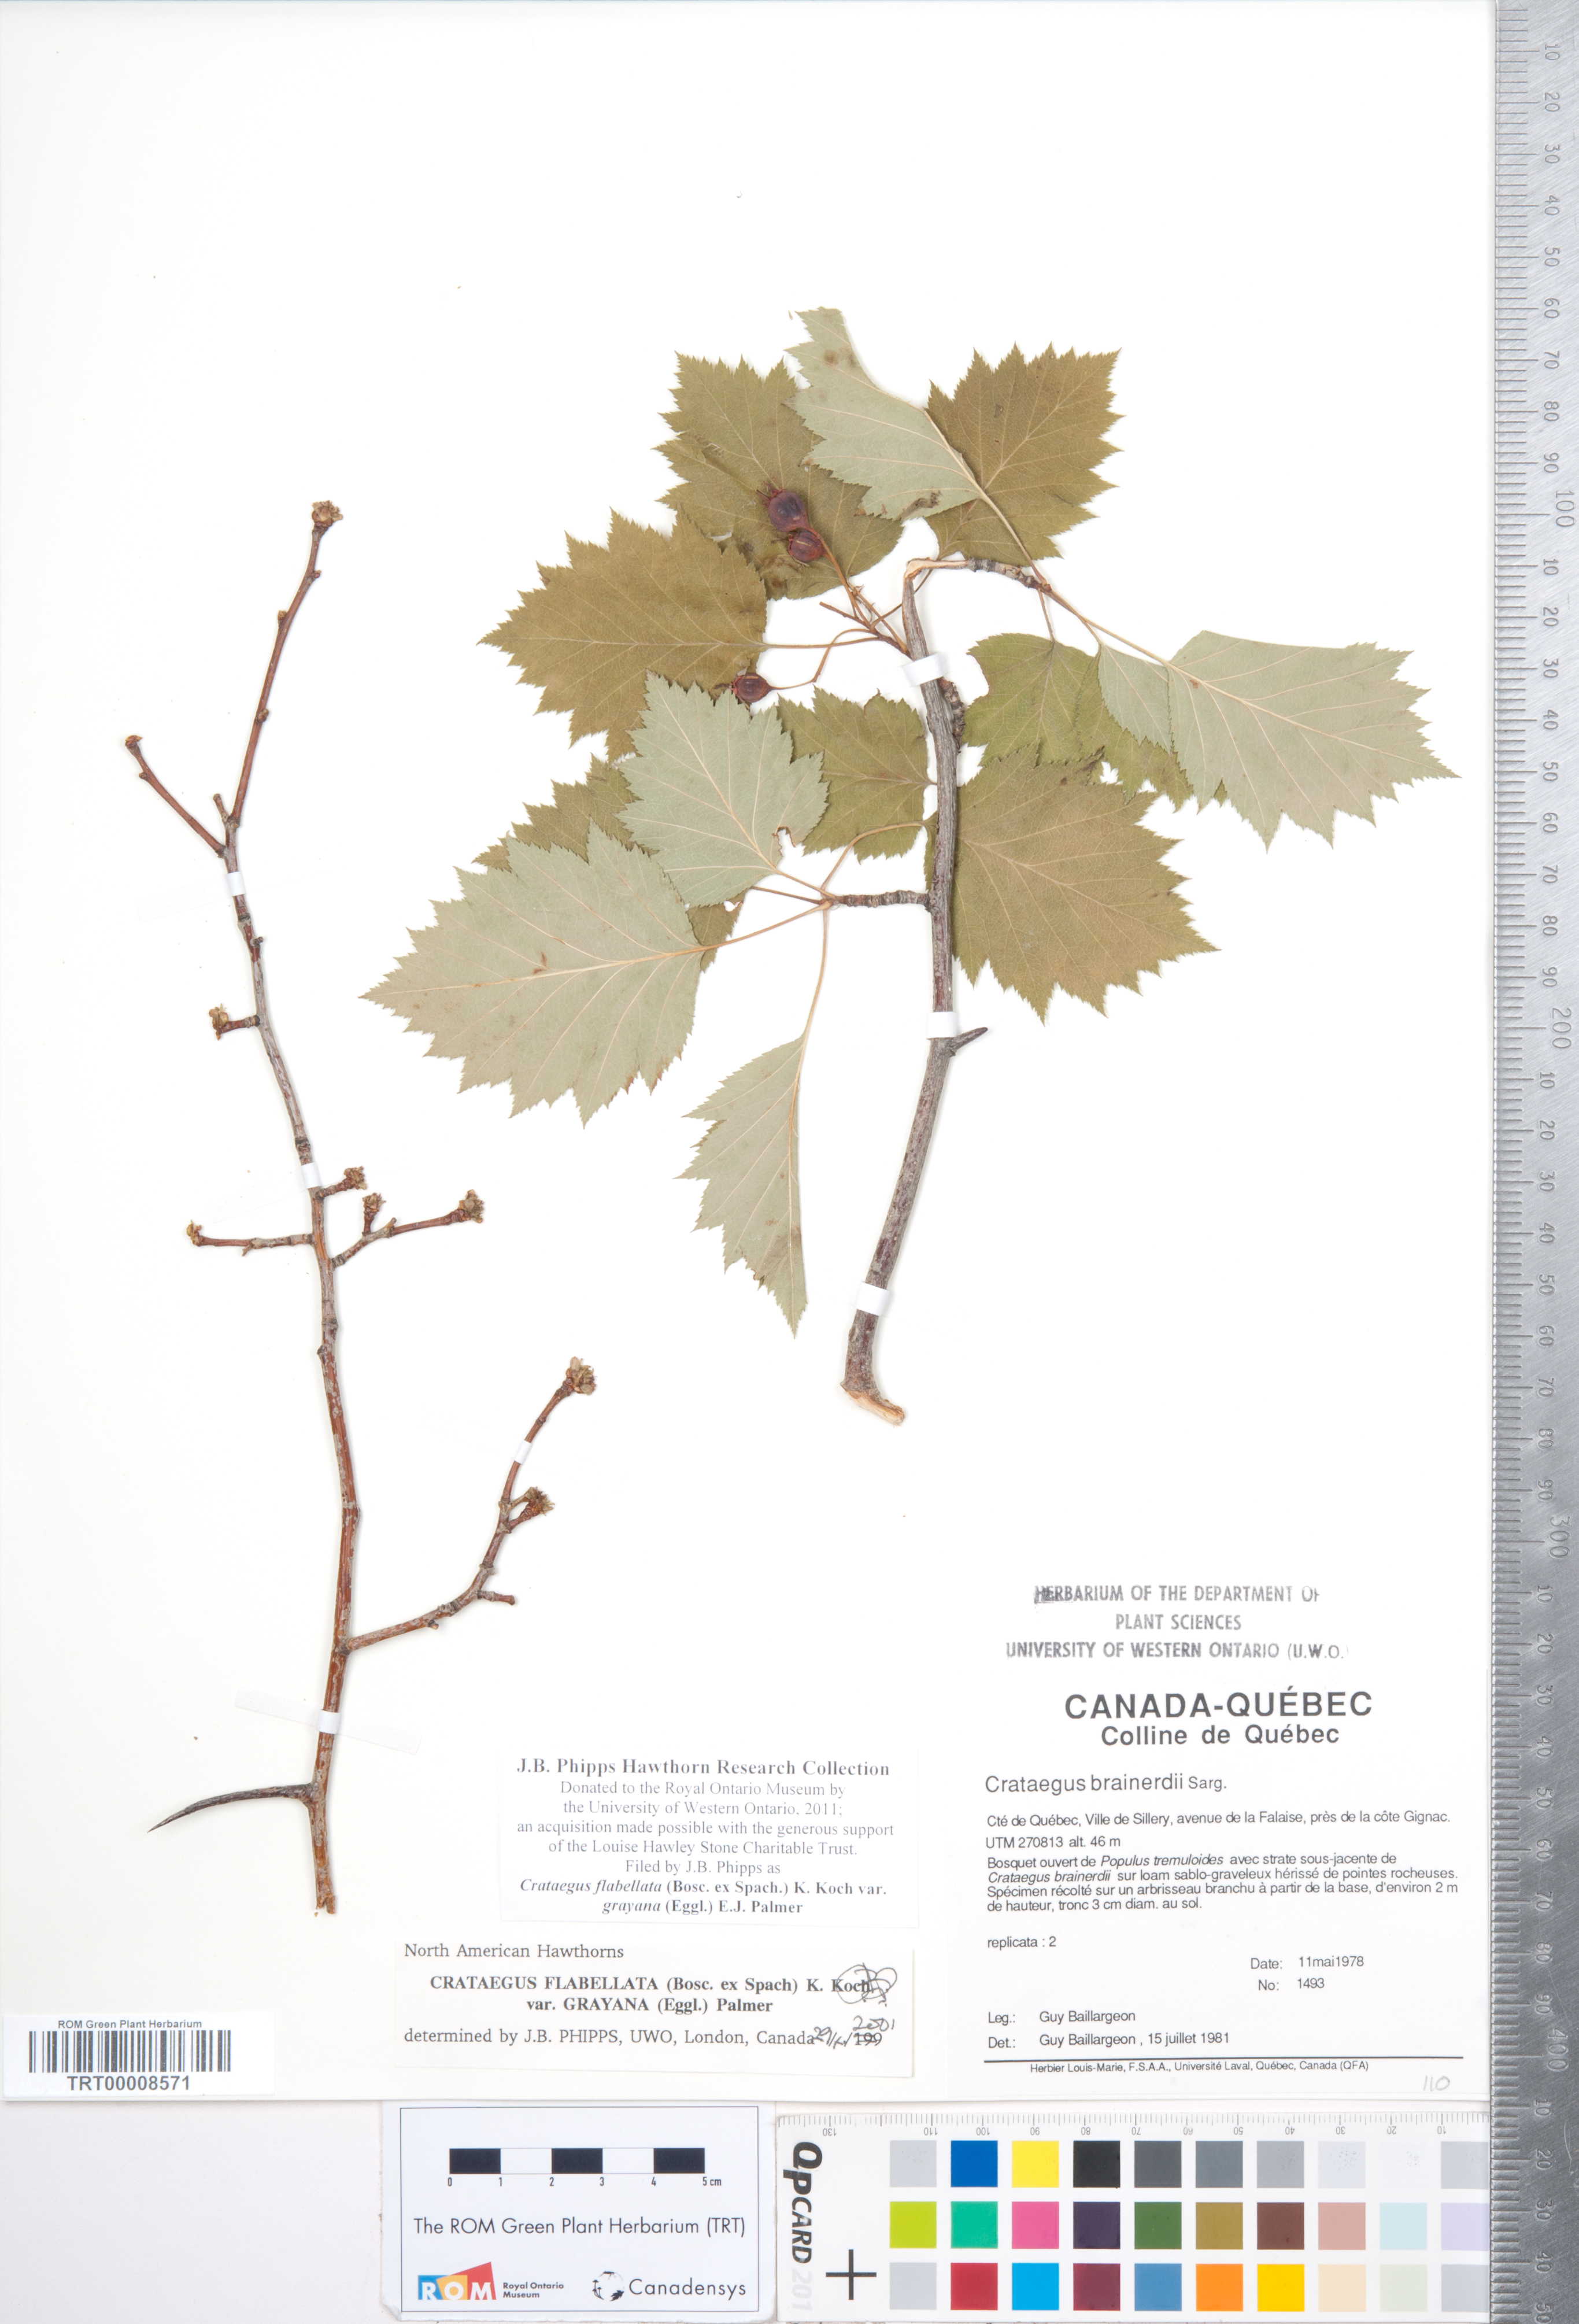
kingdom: Plantae
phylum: Tracheophyta
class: Magnoliopsida
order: Rosales
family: Rosaceae
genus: Crataegus
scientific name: Crataegus flabellata
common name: Bosc's hawthorn
